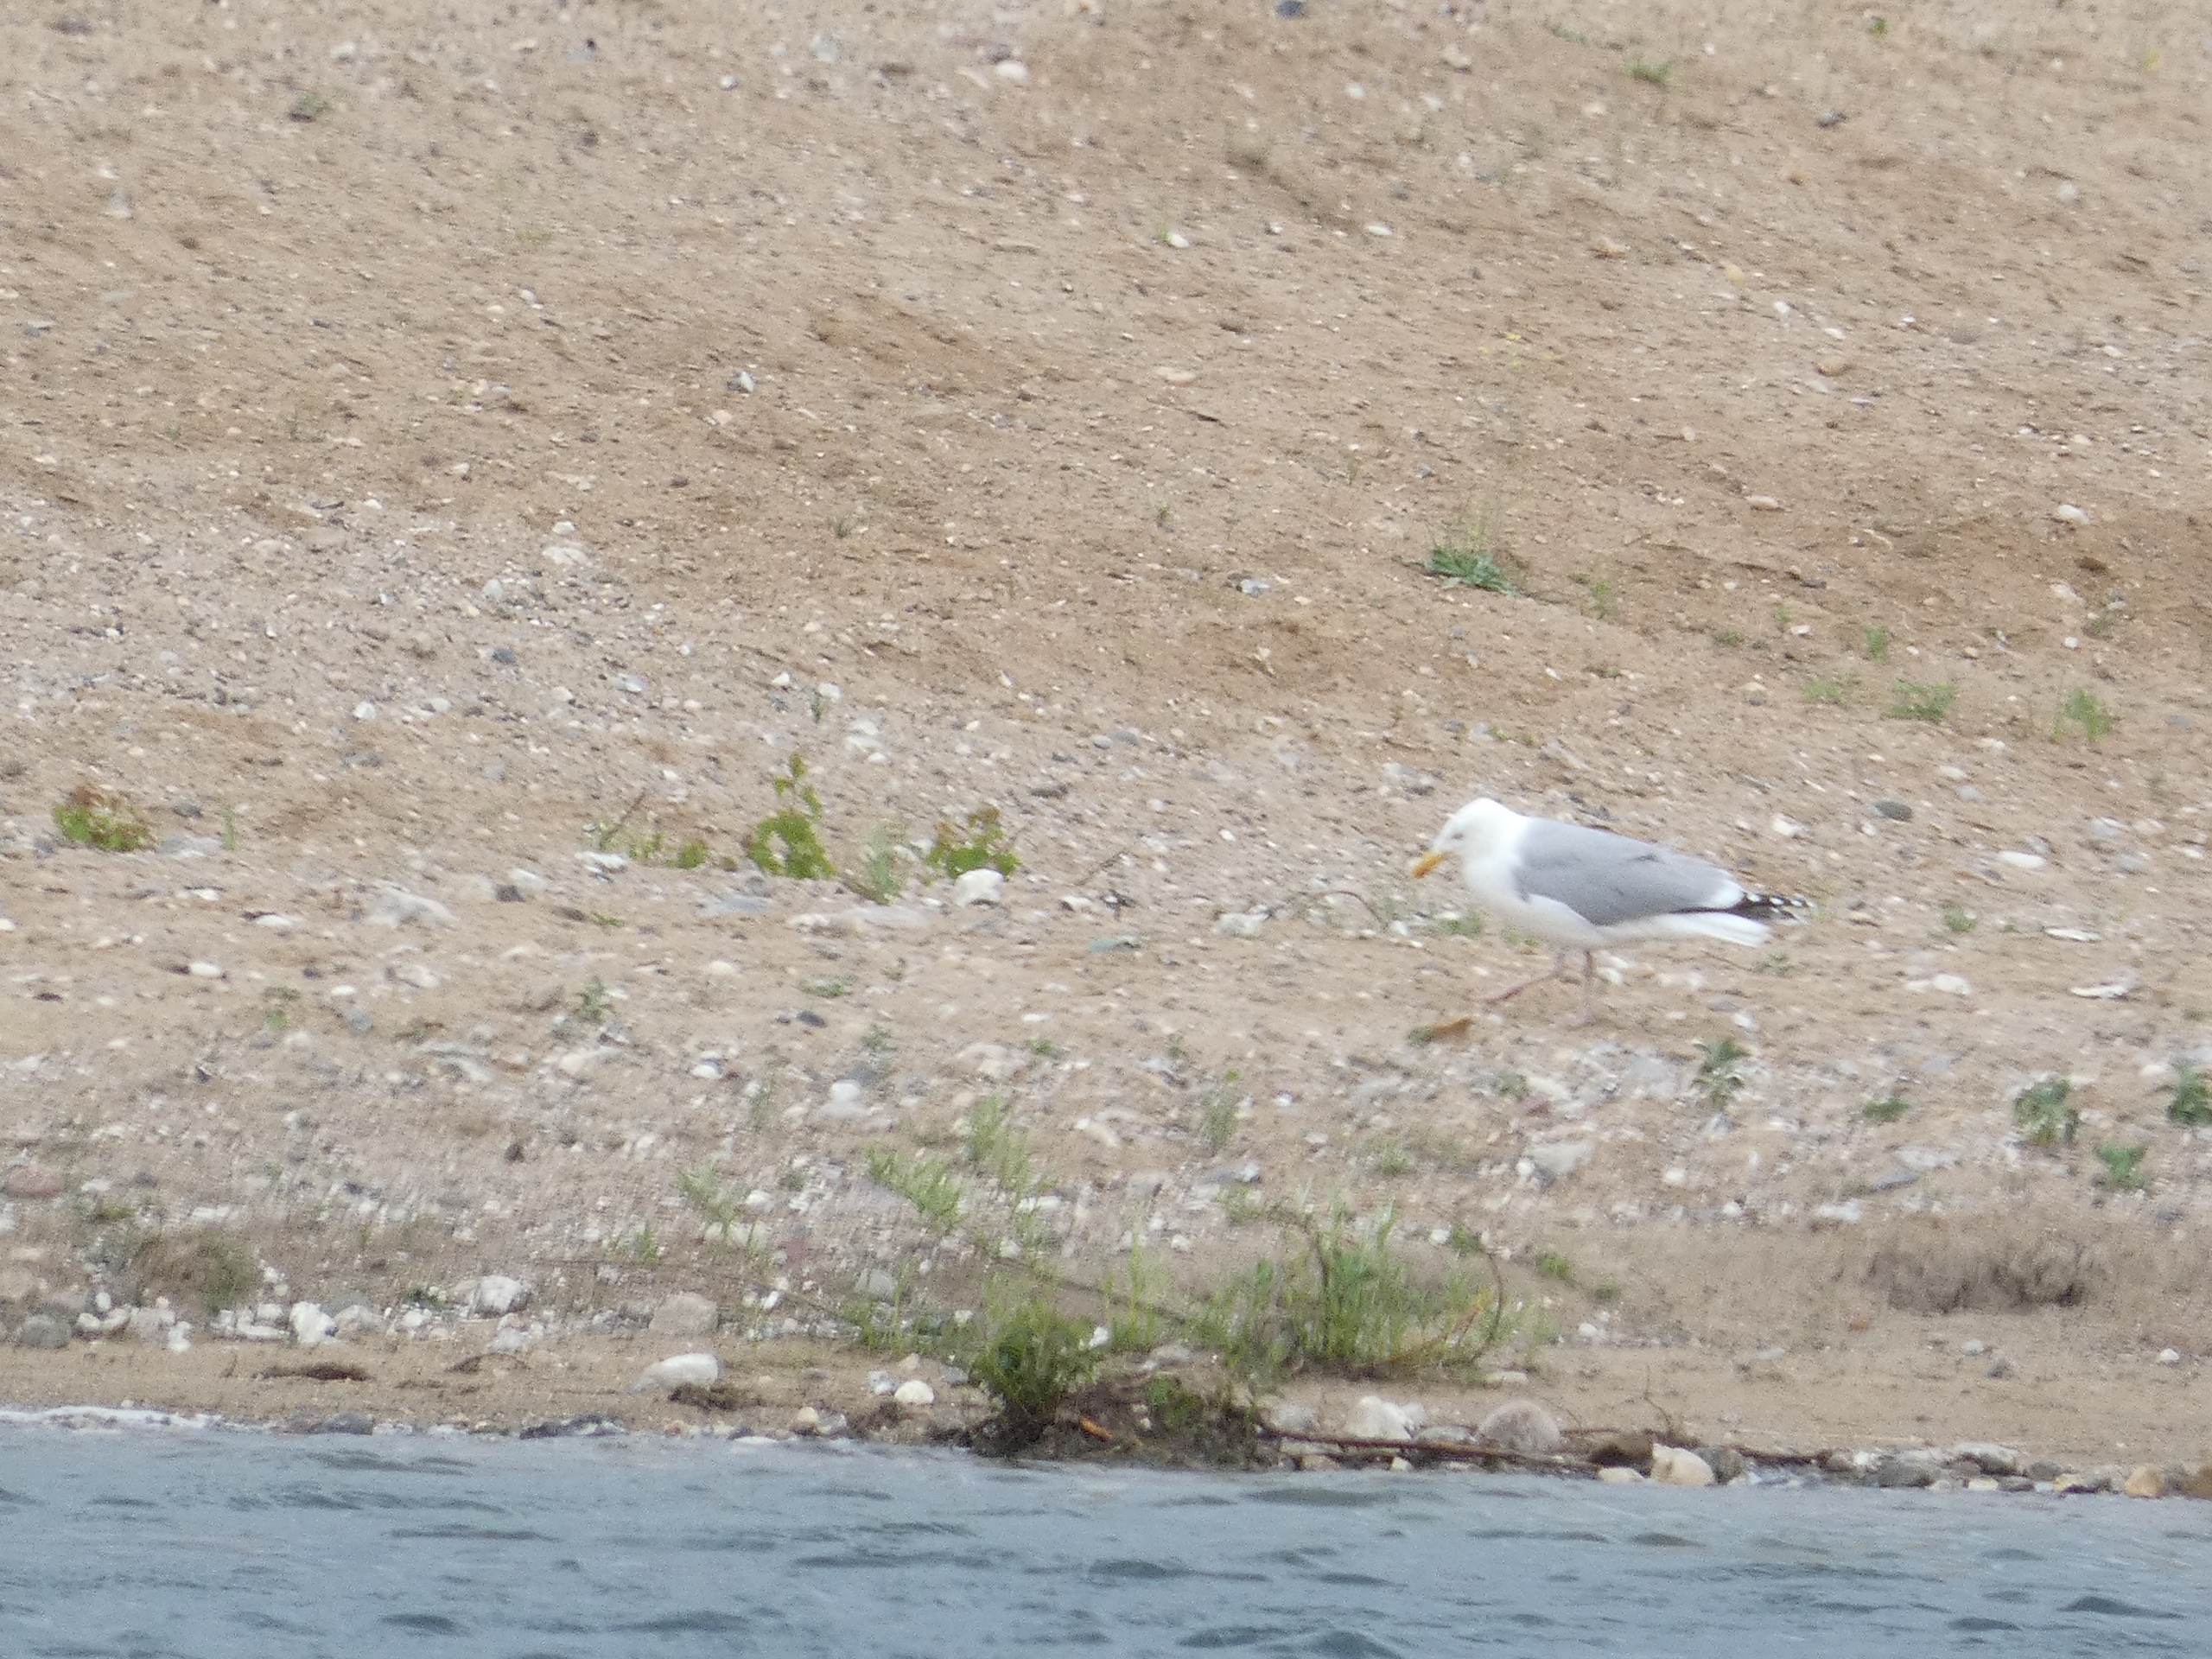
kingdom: Animalia
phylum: Chordata
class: Aves
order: Charadriiformes
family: Laridae
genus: Larus
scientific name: Larus argentatus
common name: Sølvmåge
